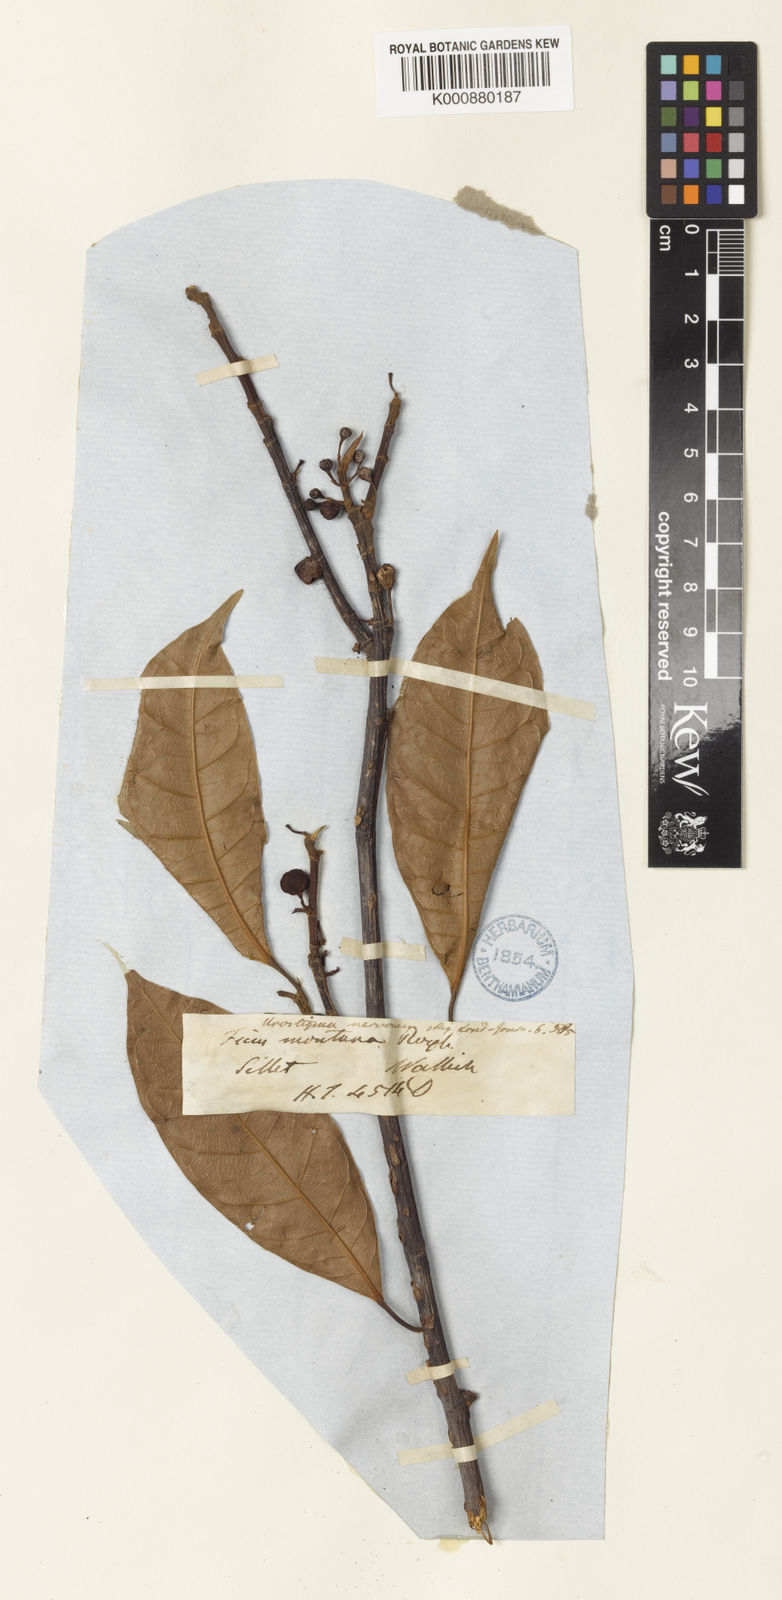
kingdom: Plantae
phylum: Tracheophyta
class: Magnoliopsida
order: Rosales
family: Moraceae
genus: Ficus
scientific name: Ficus nervosa
